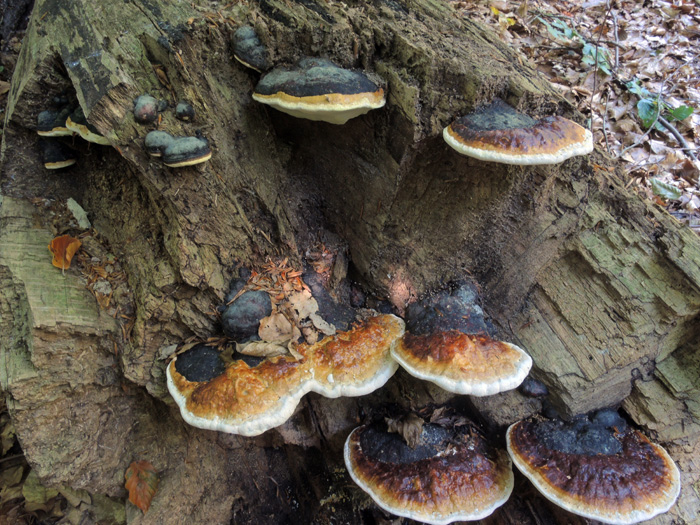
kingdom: Fungi
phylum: Basidiomycota
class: Agaricomycetes
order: Polyporales
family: Fomitopsidaceae
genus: Fomitopsis
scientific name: Fomitopsis pinicola
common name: randbæltet hovporesvamp
